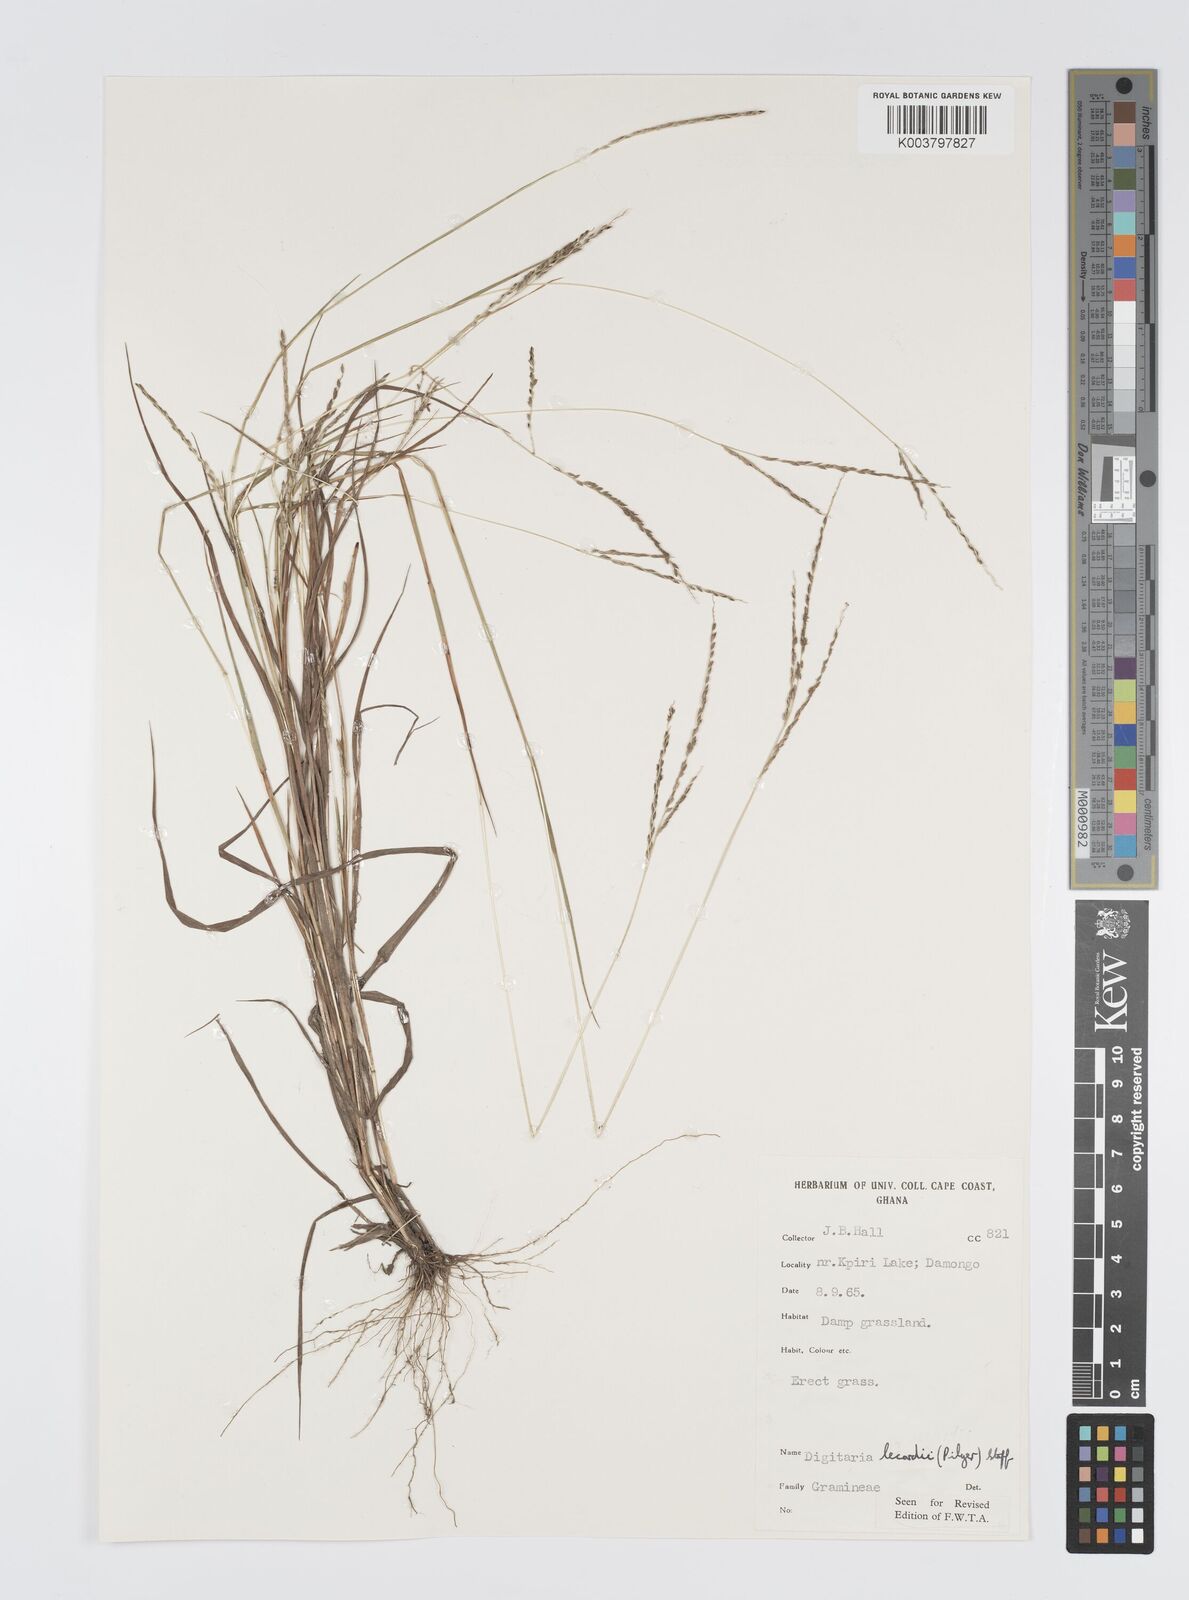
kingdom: Plantae
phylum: Tracheophyta
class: Liliopsida
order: Poales
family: Poaceae
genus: Digitaria
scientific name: Digitaria
